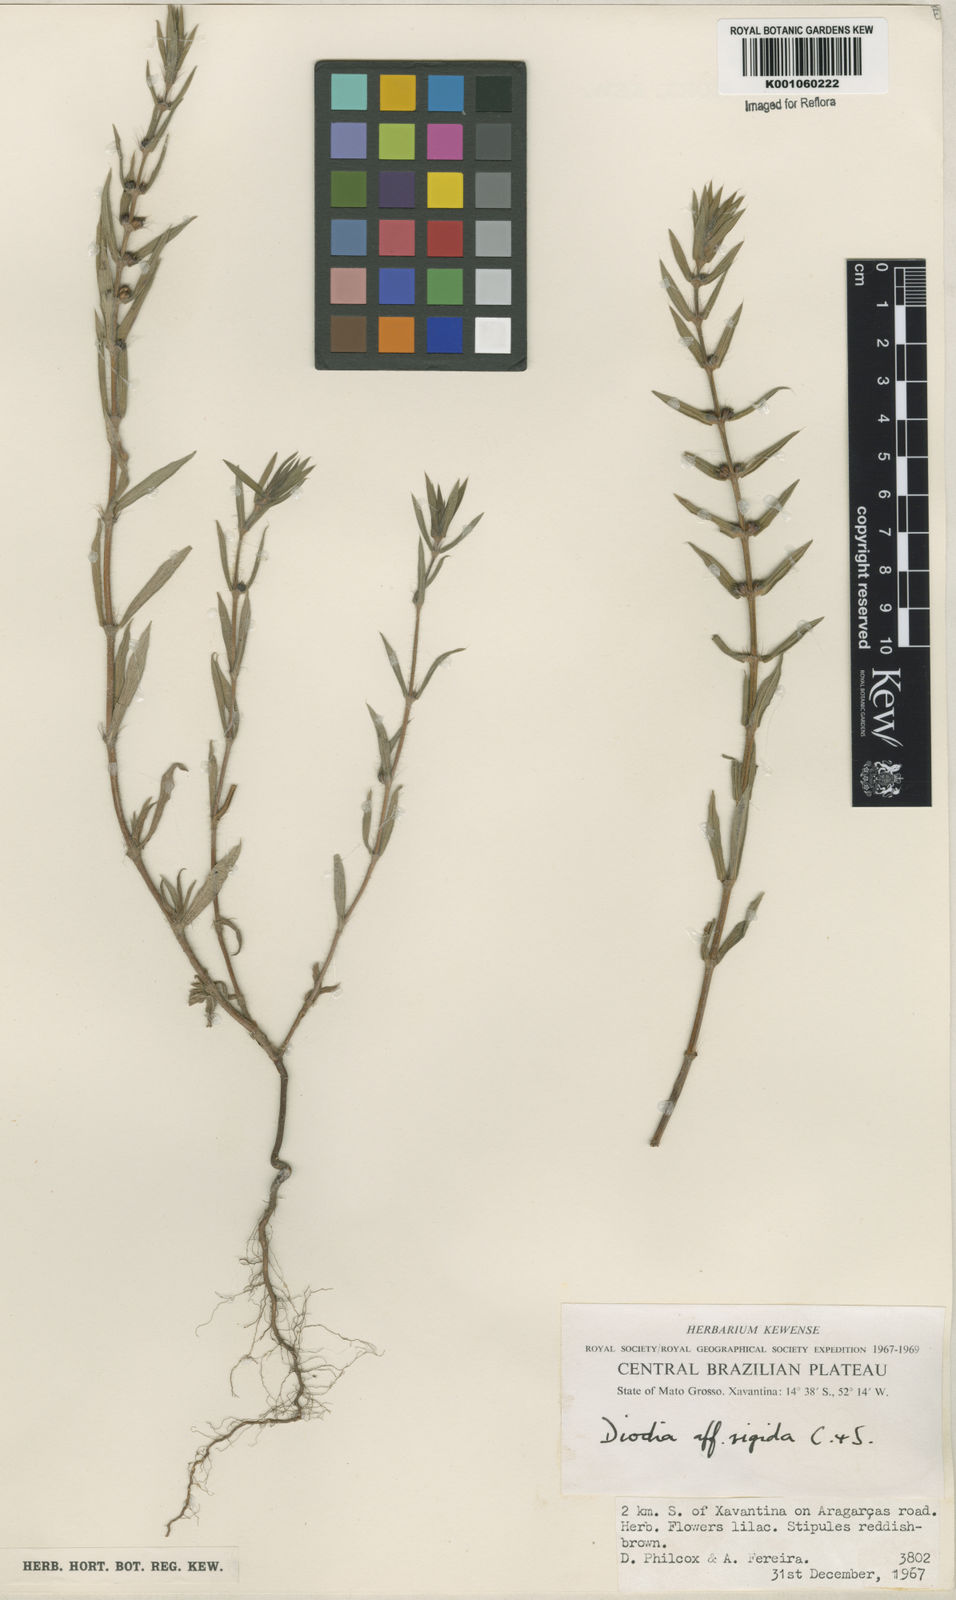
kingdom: Plantae
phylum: Tracheophyta
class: Magnoliopsida
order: Gentianales
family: Rubiaceae
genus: Diodia
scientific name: Diodia
